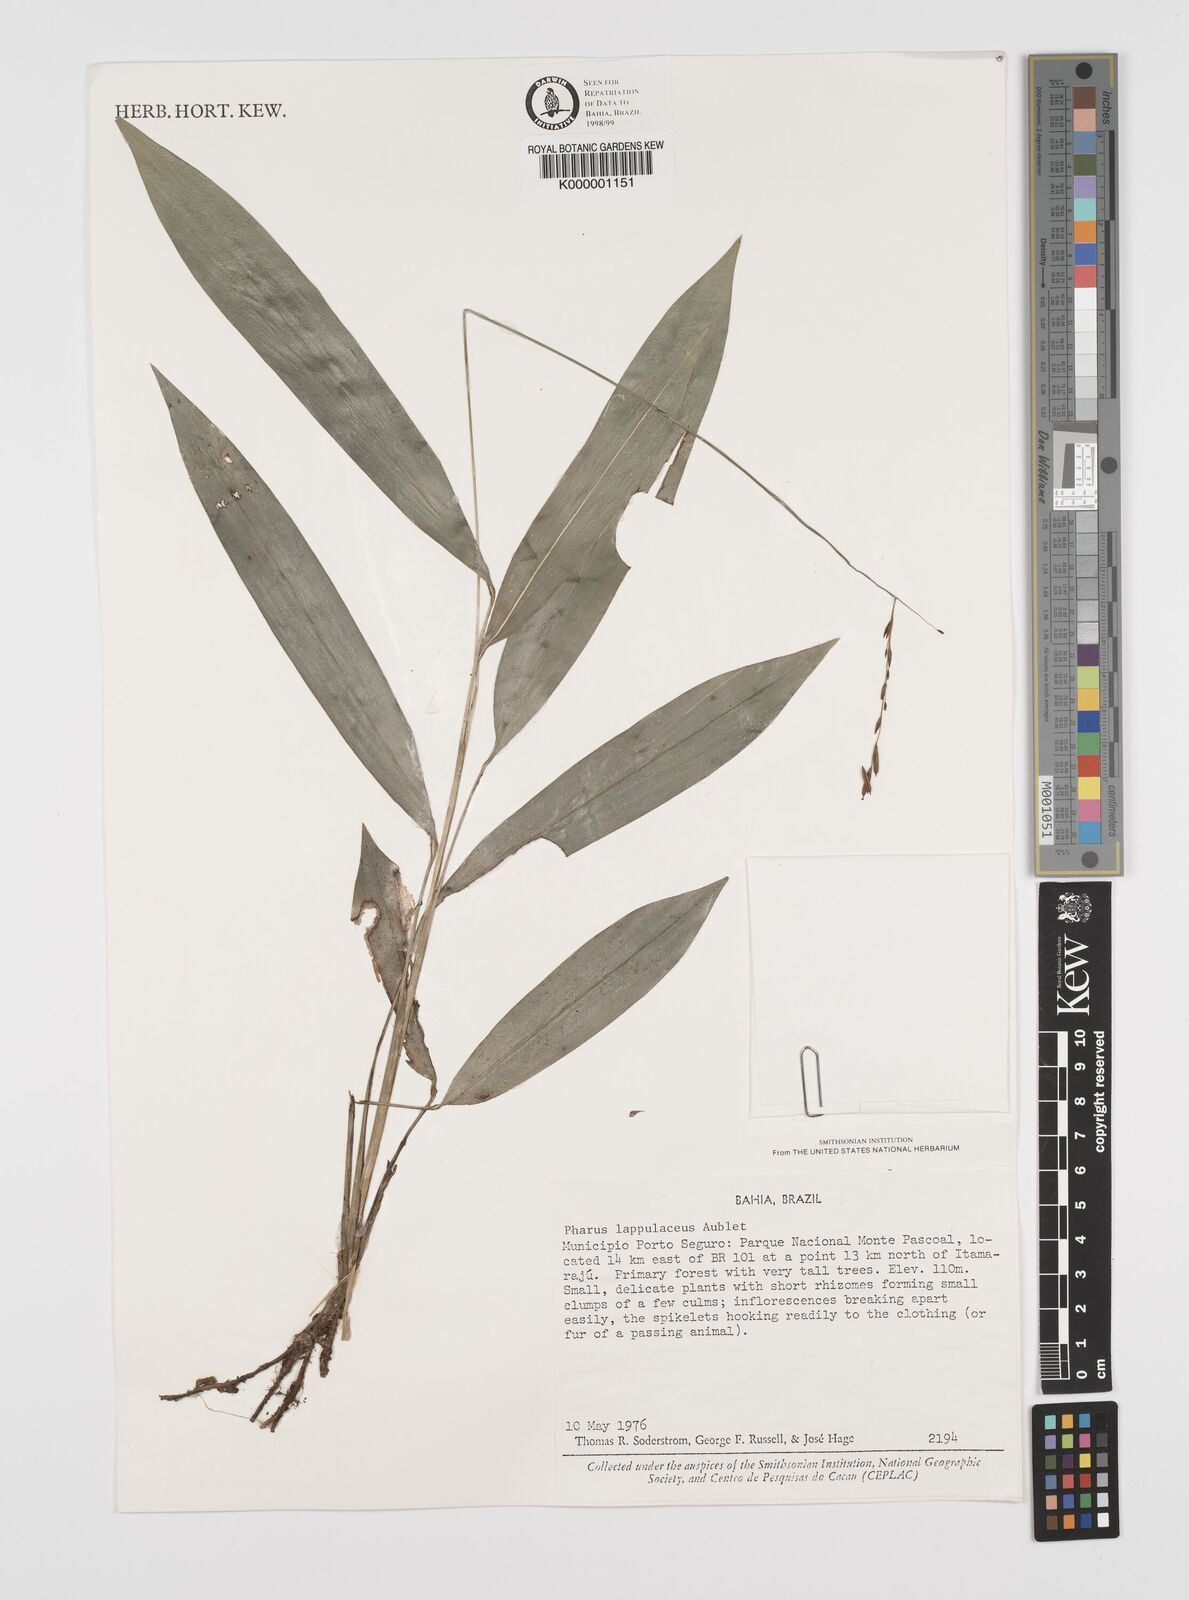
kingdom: Plantae
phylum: Tracheophyta
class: Liliopsida
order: Poales
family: Poaceae
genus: Pharus
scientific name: Pharus lappulaceus
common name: Creeping leafstalk grass
